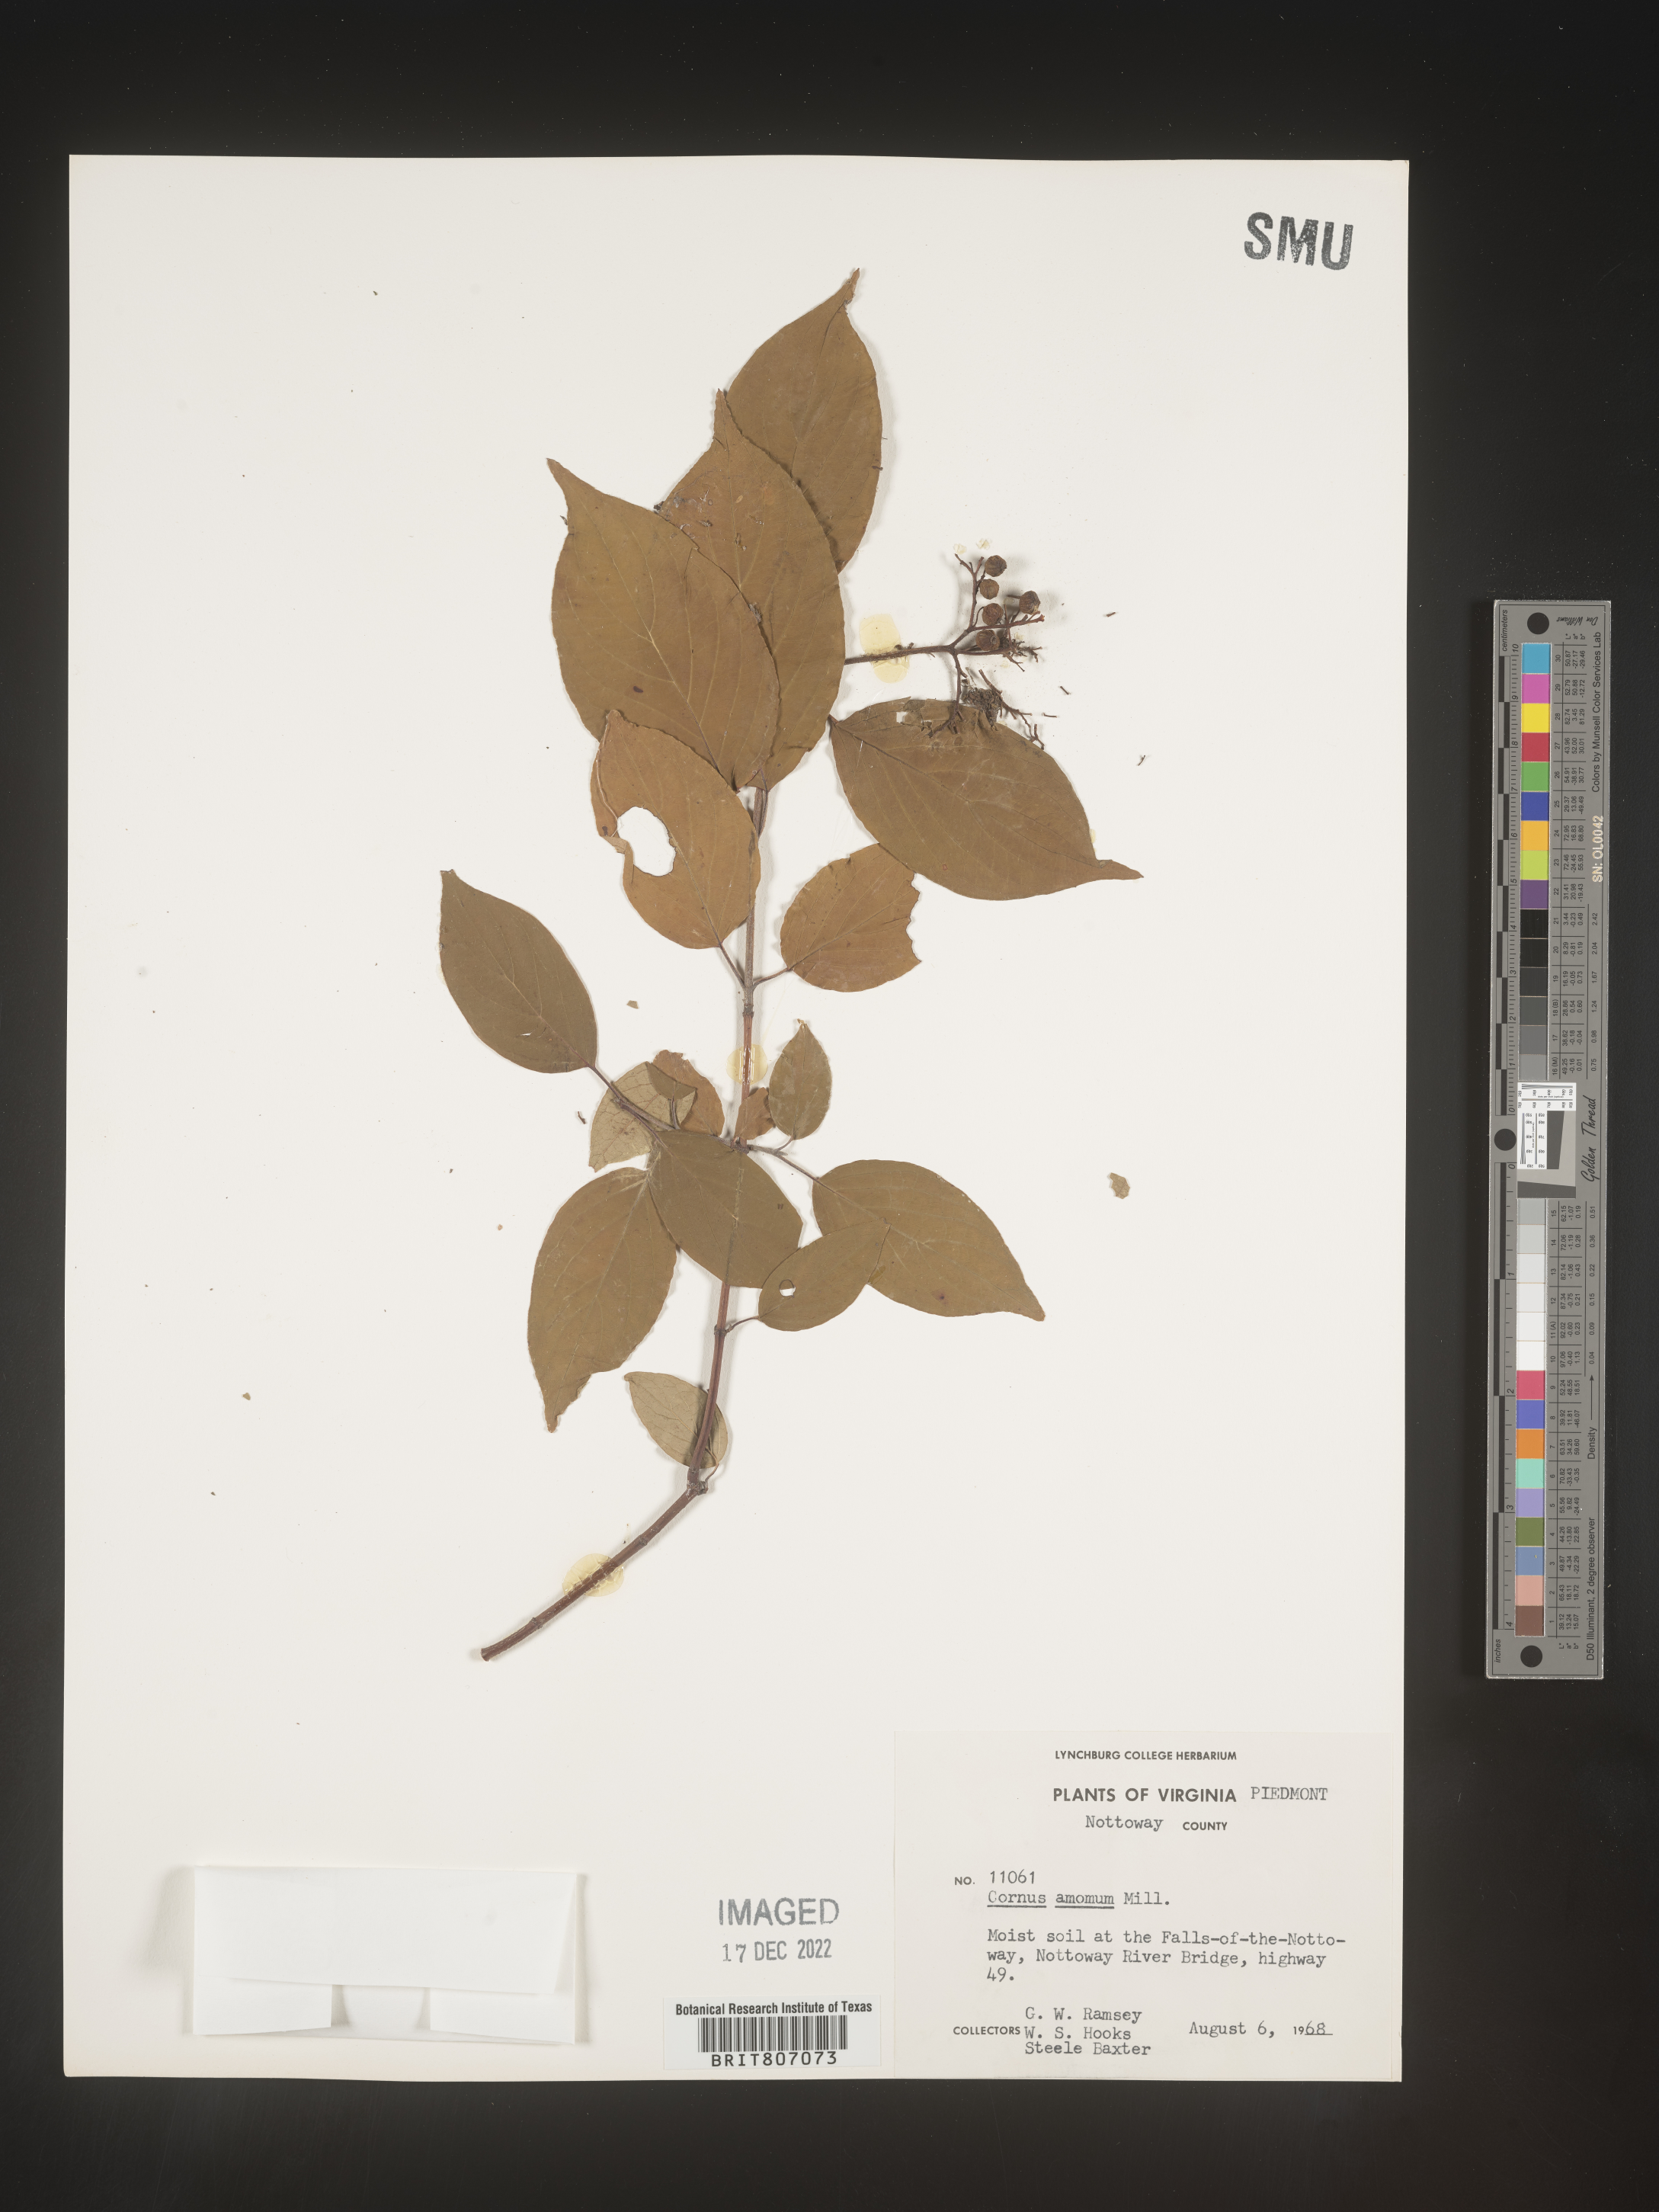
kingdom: Plantae
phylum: Tracheophyta
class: Magnoliopsida
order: Cornales
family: Cornaceae
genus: Cornus
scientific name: Cornus amomum
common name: Silky dogwood
